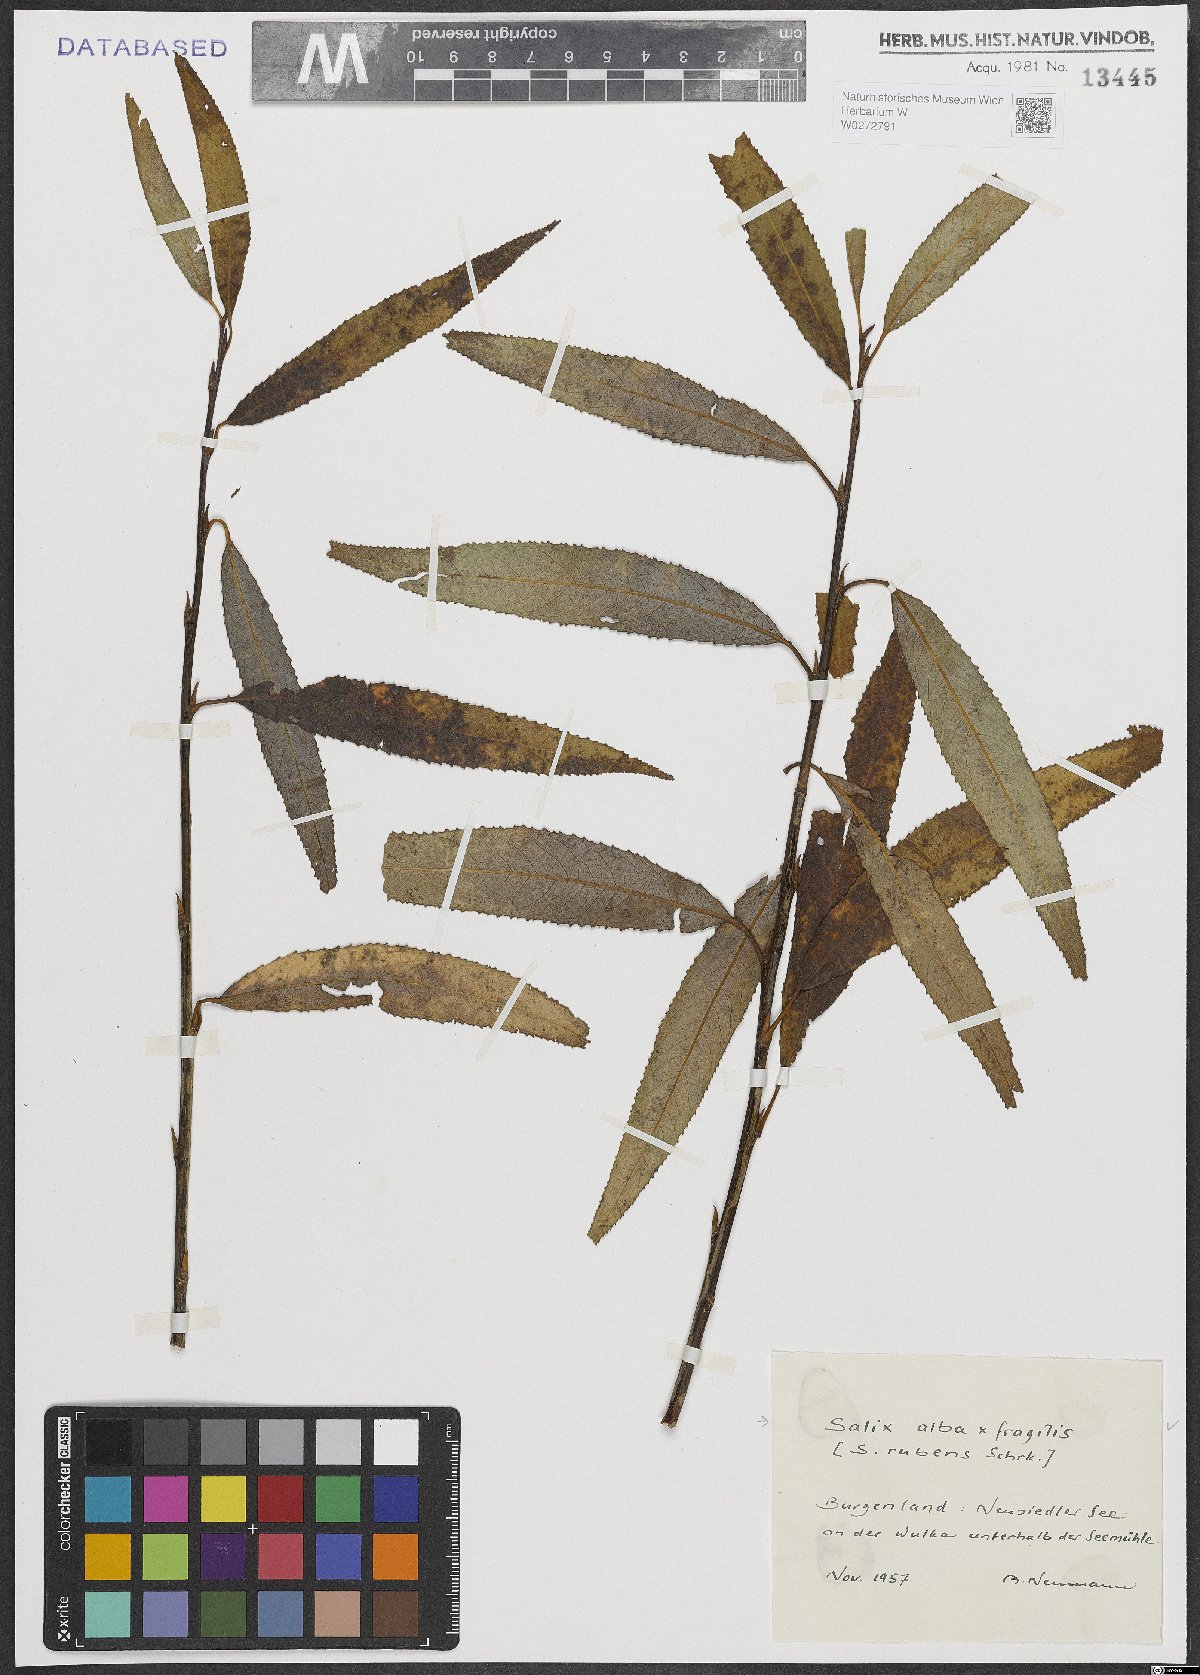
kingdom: Plantae
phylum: Tracheophyta
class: Magnoliopsida
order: Malpighiales
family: Salicaceae
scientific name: Salicaceae
